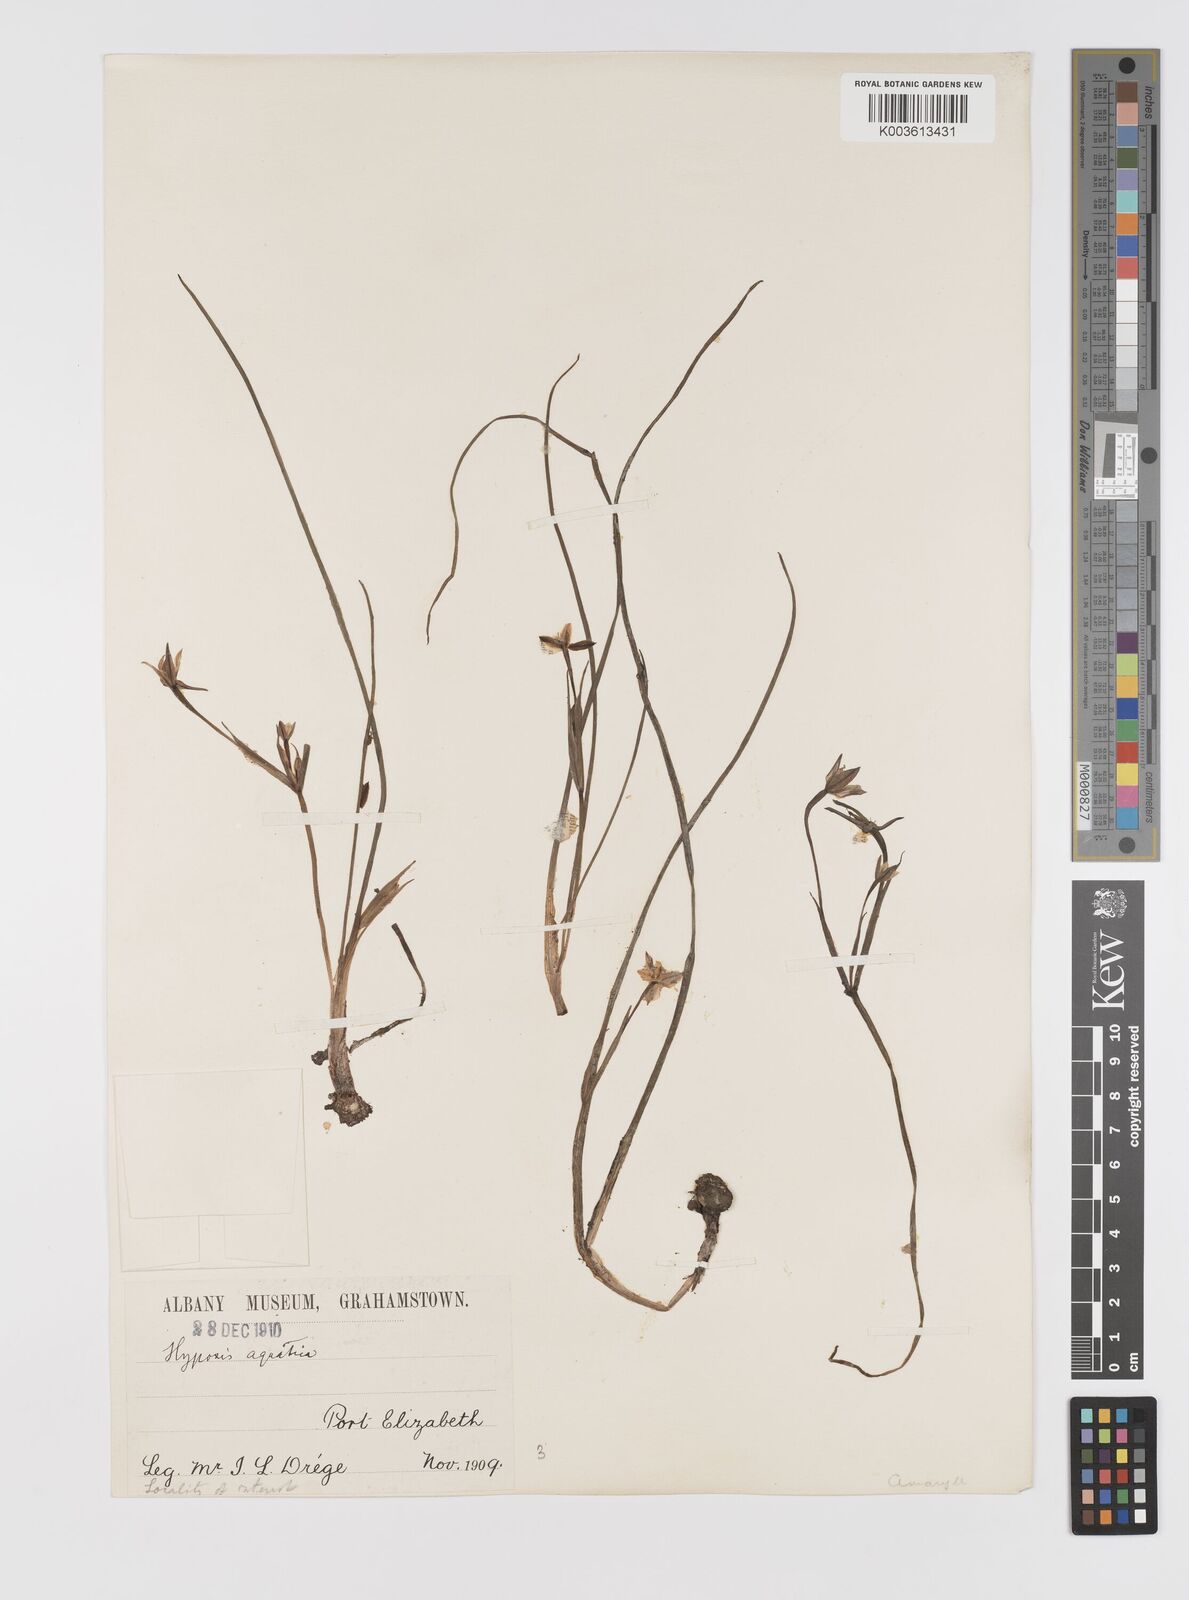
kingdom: Plantae
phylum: Tracheophyta
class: Liliopsida
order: Asparagales
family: Hypoxidaceae
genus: Pauridia
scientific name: Pauridia aquatica
